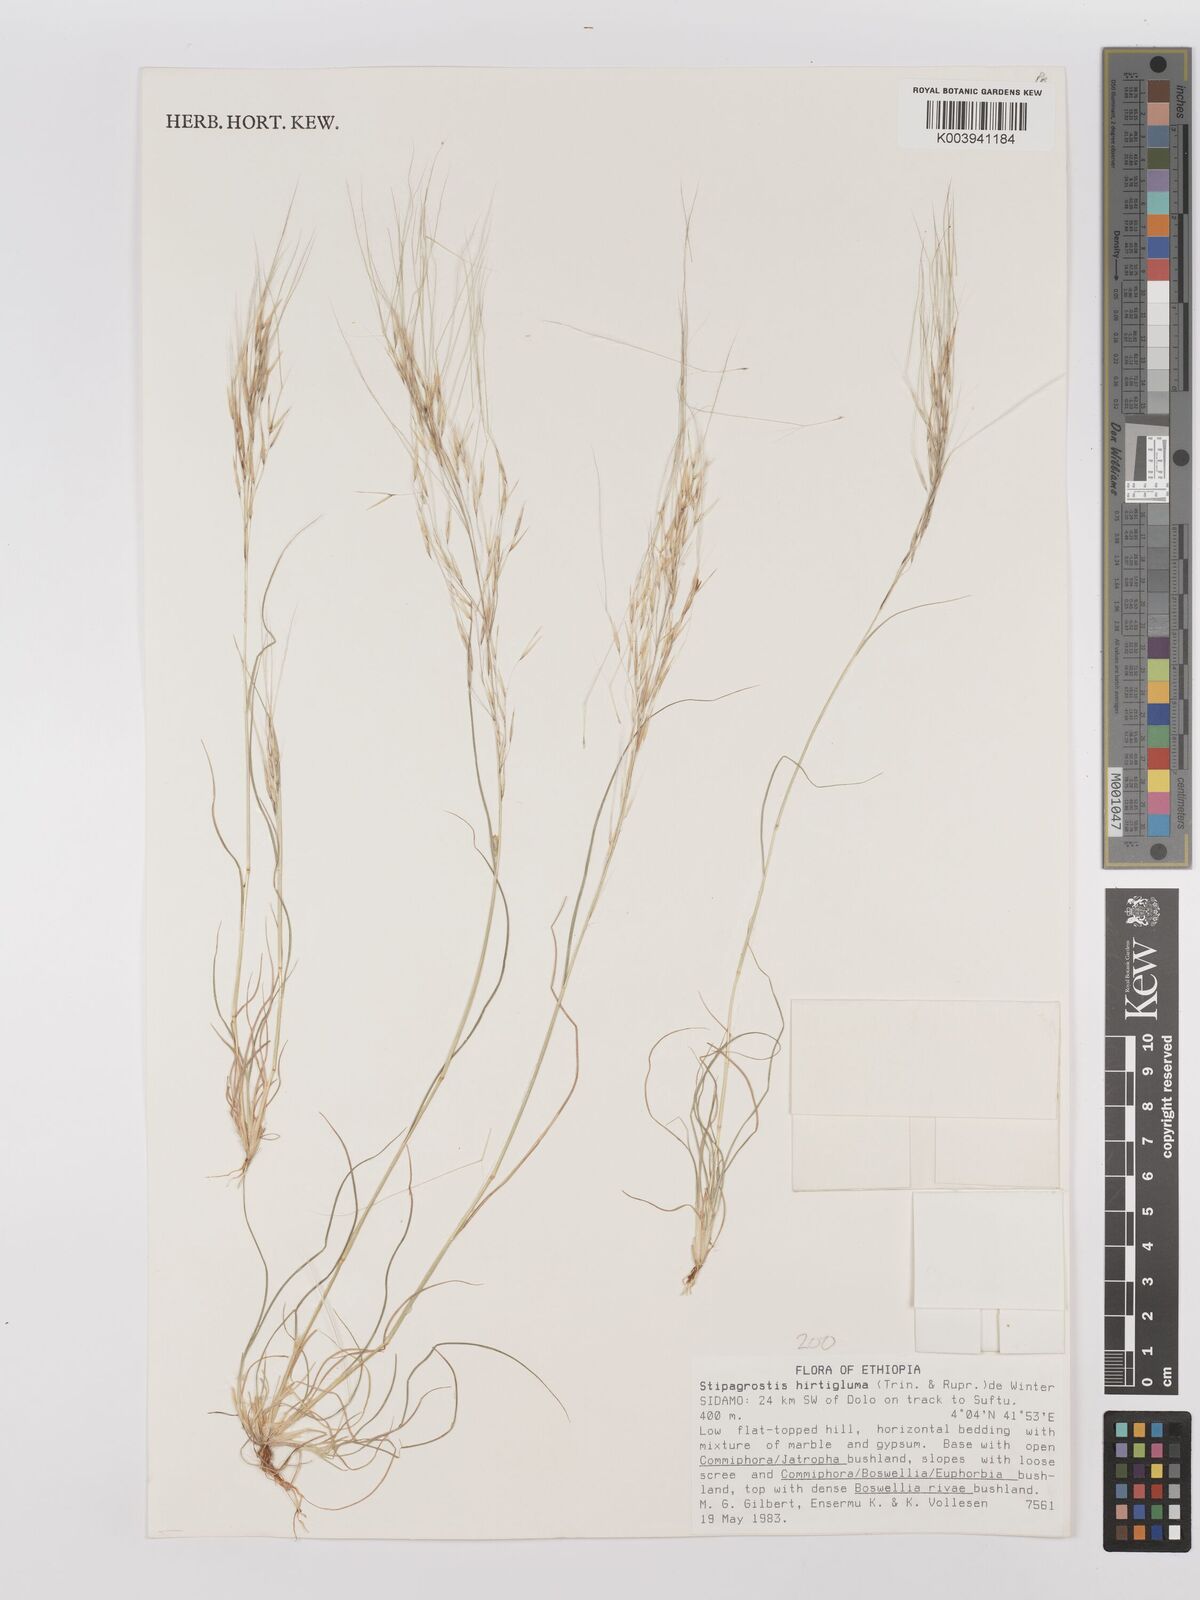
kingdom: Plantae
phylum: Tracheophyta
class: Liliopsida
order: Poales
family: Poaceae
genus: Stipagrostis
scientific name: Stipagrostis hirtigluma
